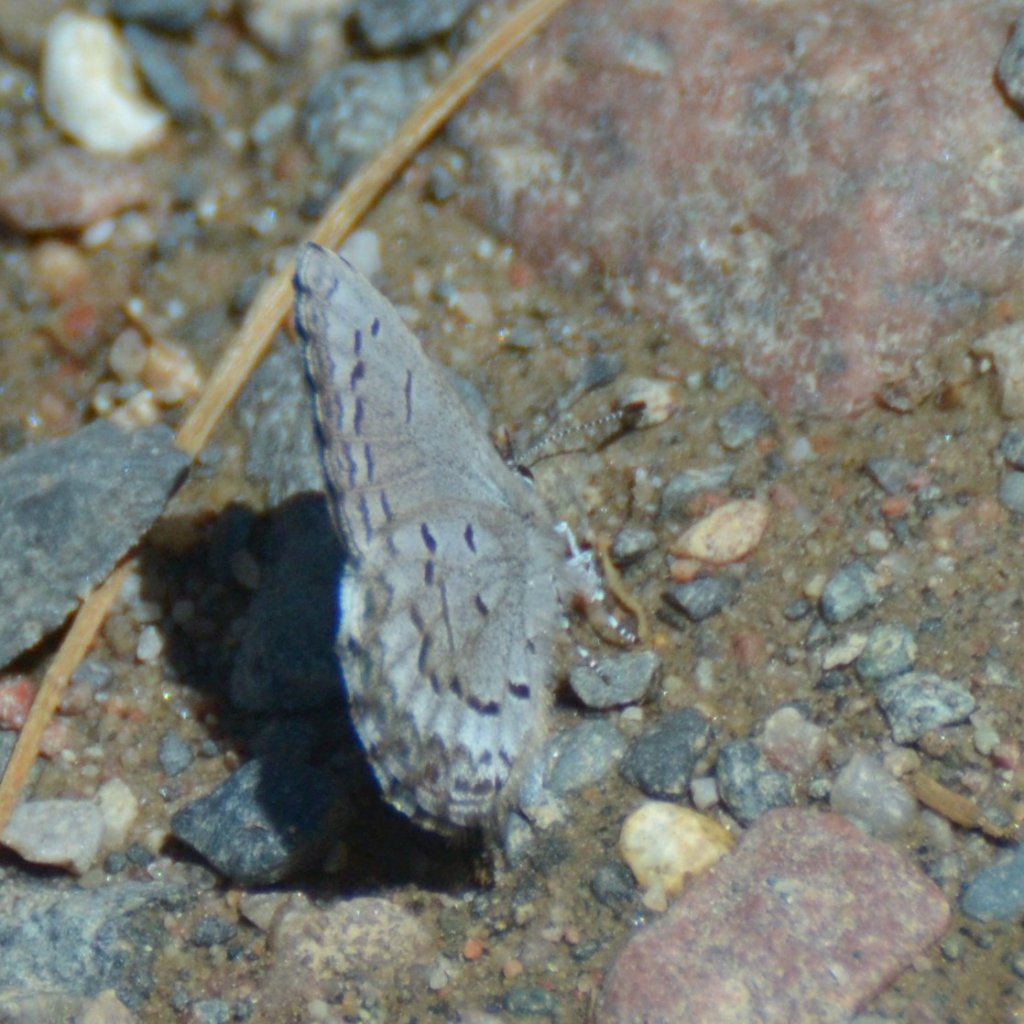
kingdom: Animalia
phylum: Arthropoda
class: Insecta
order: Lepidoptera
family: Lycaenidae
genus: Celastrina
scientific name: Celastrina lucia
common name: Northern Spring Azure
